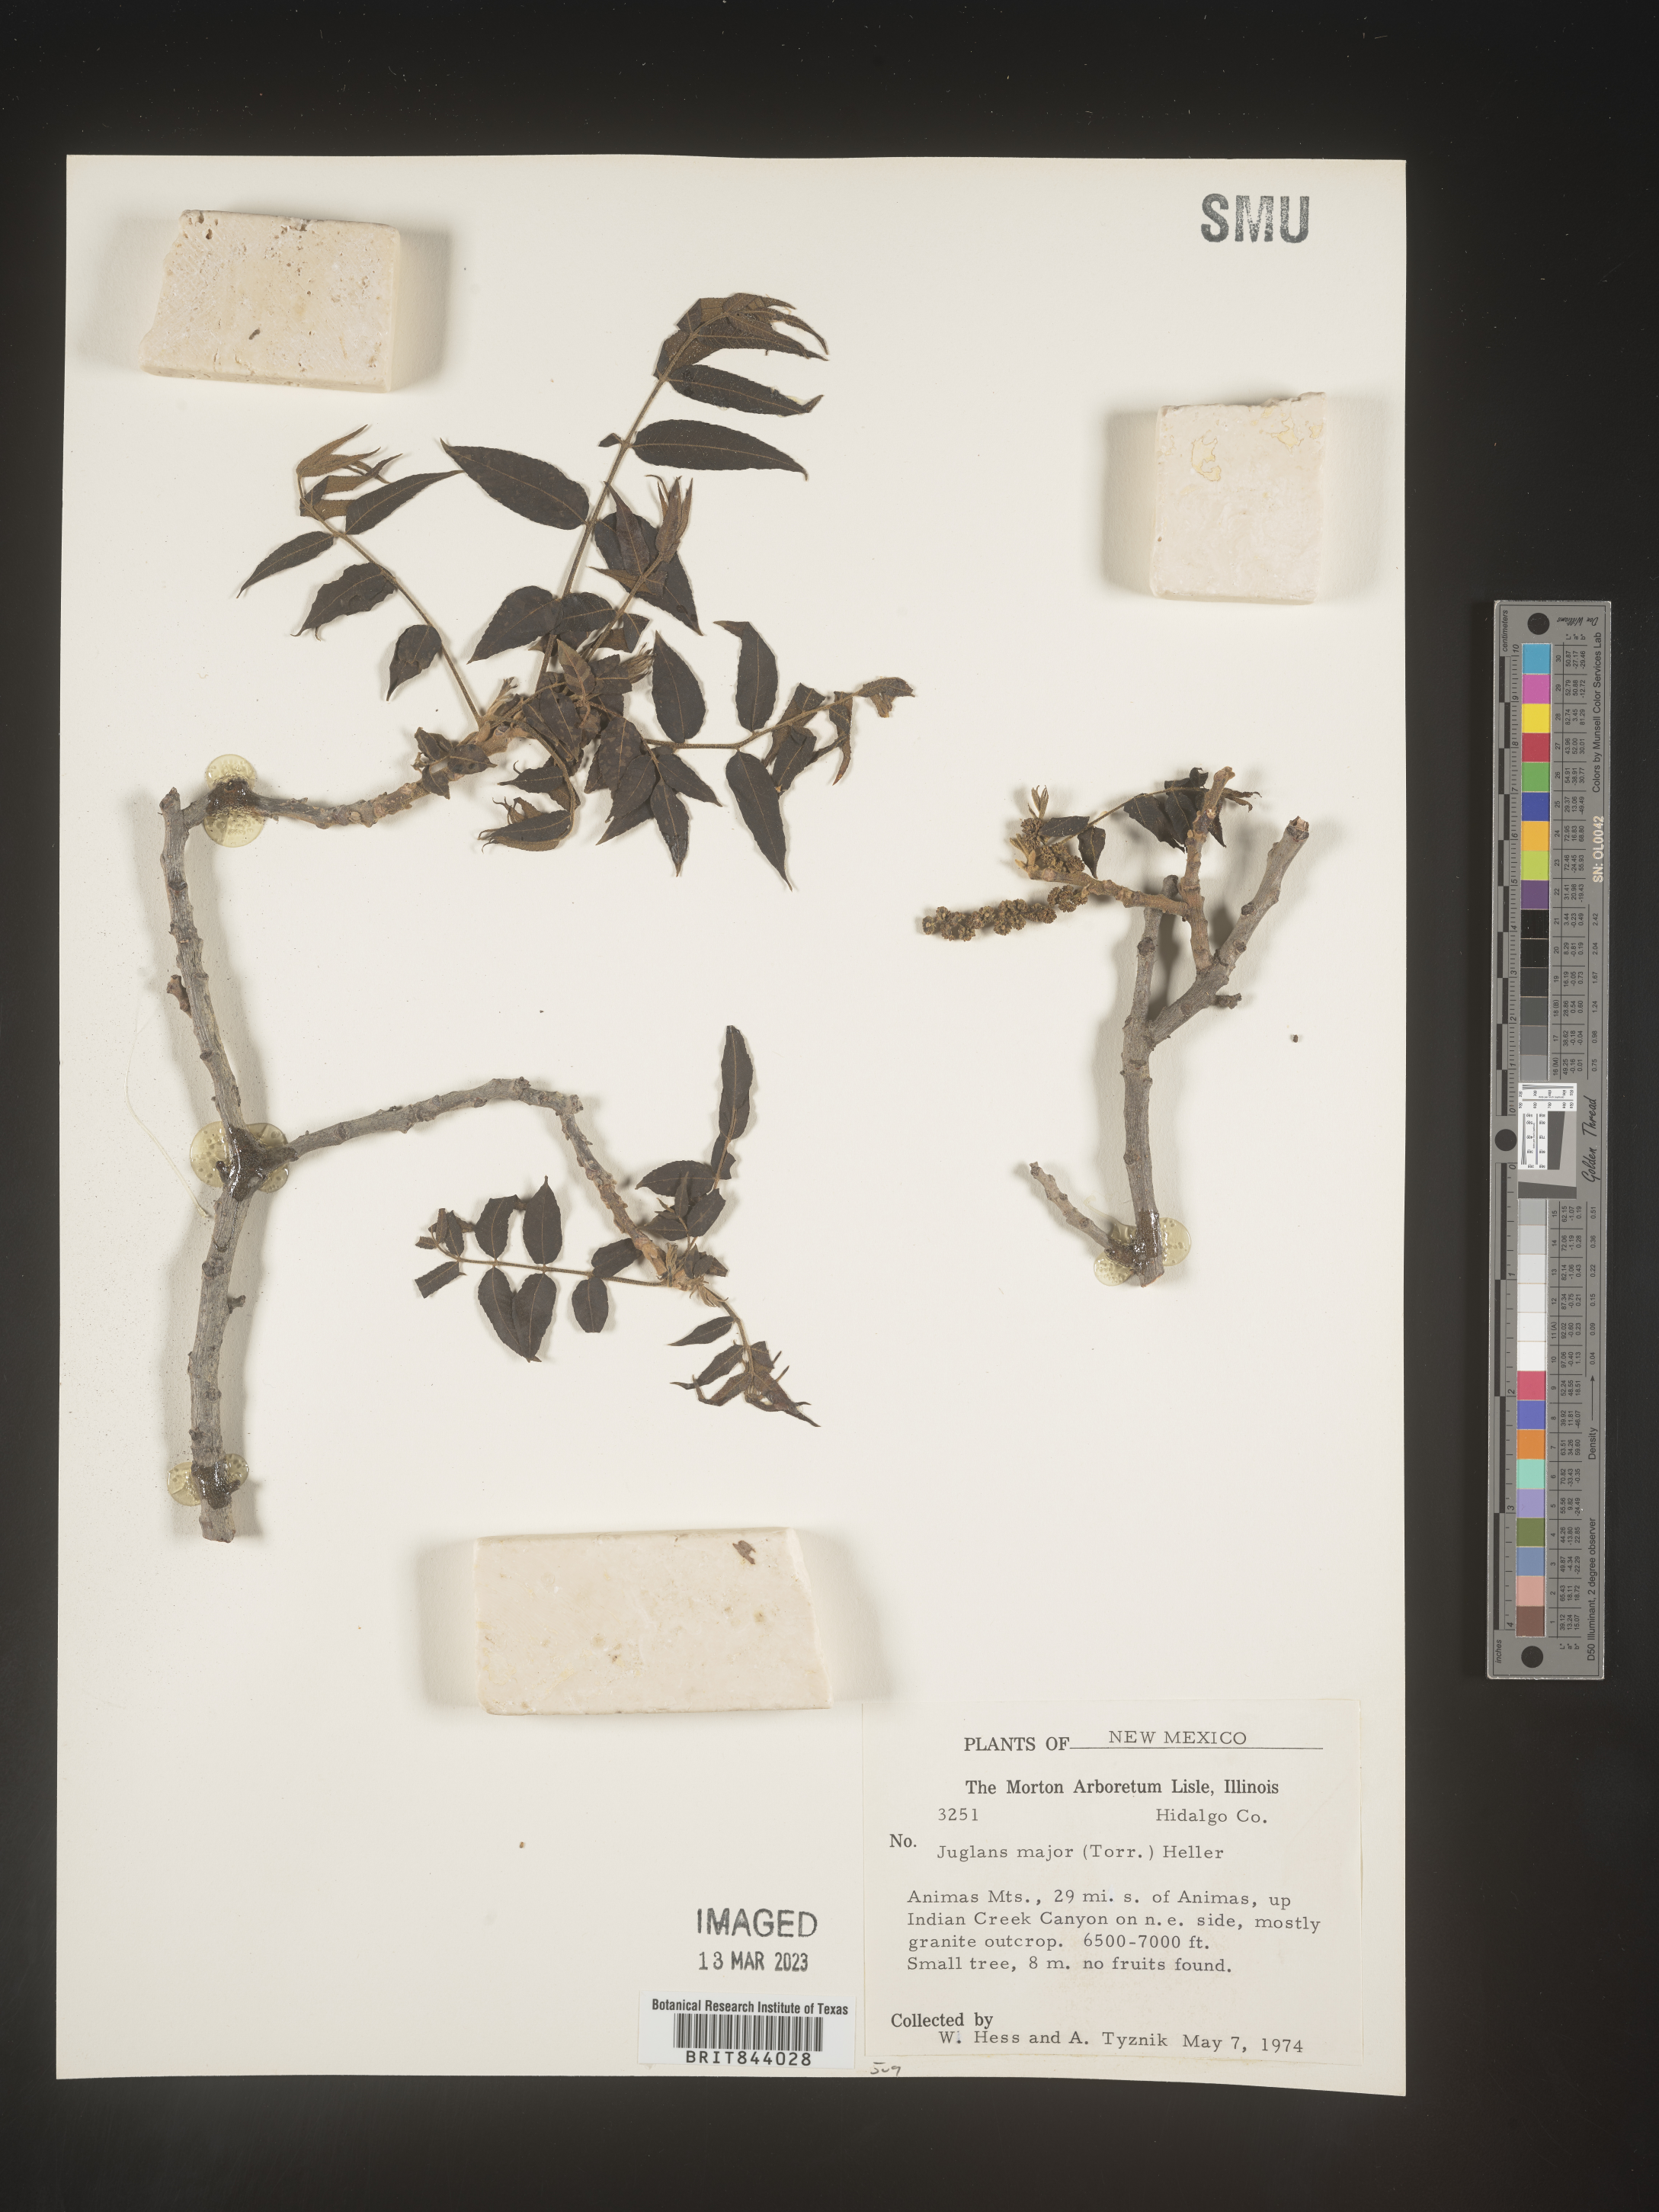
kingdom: Plantae
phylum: Tracheophyta
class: Magnoliopsida
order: Fagales
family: Juglandaceae
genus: Juglans
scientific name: Juglans major
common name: Arizona walnut
